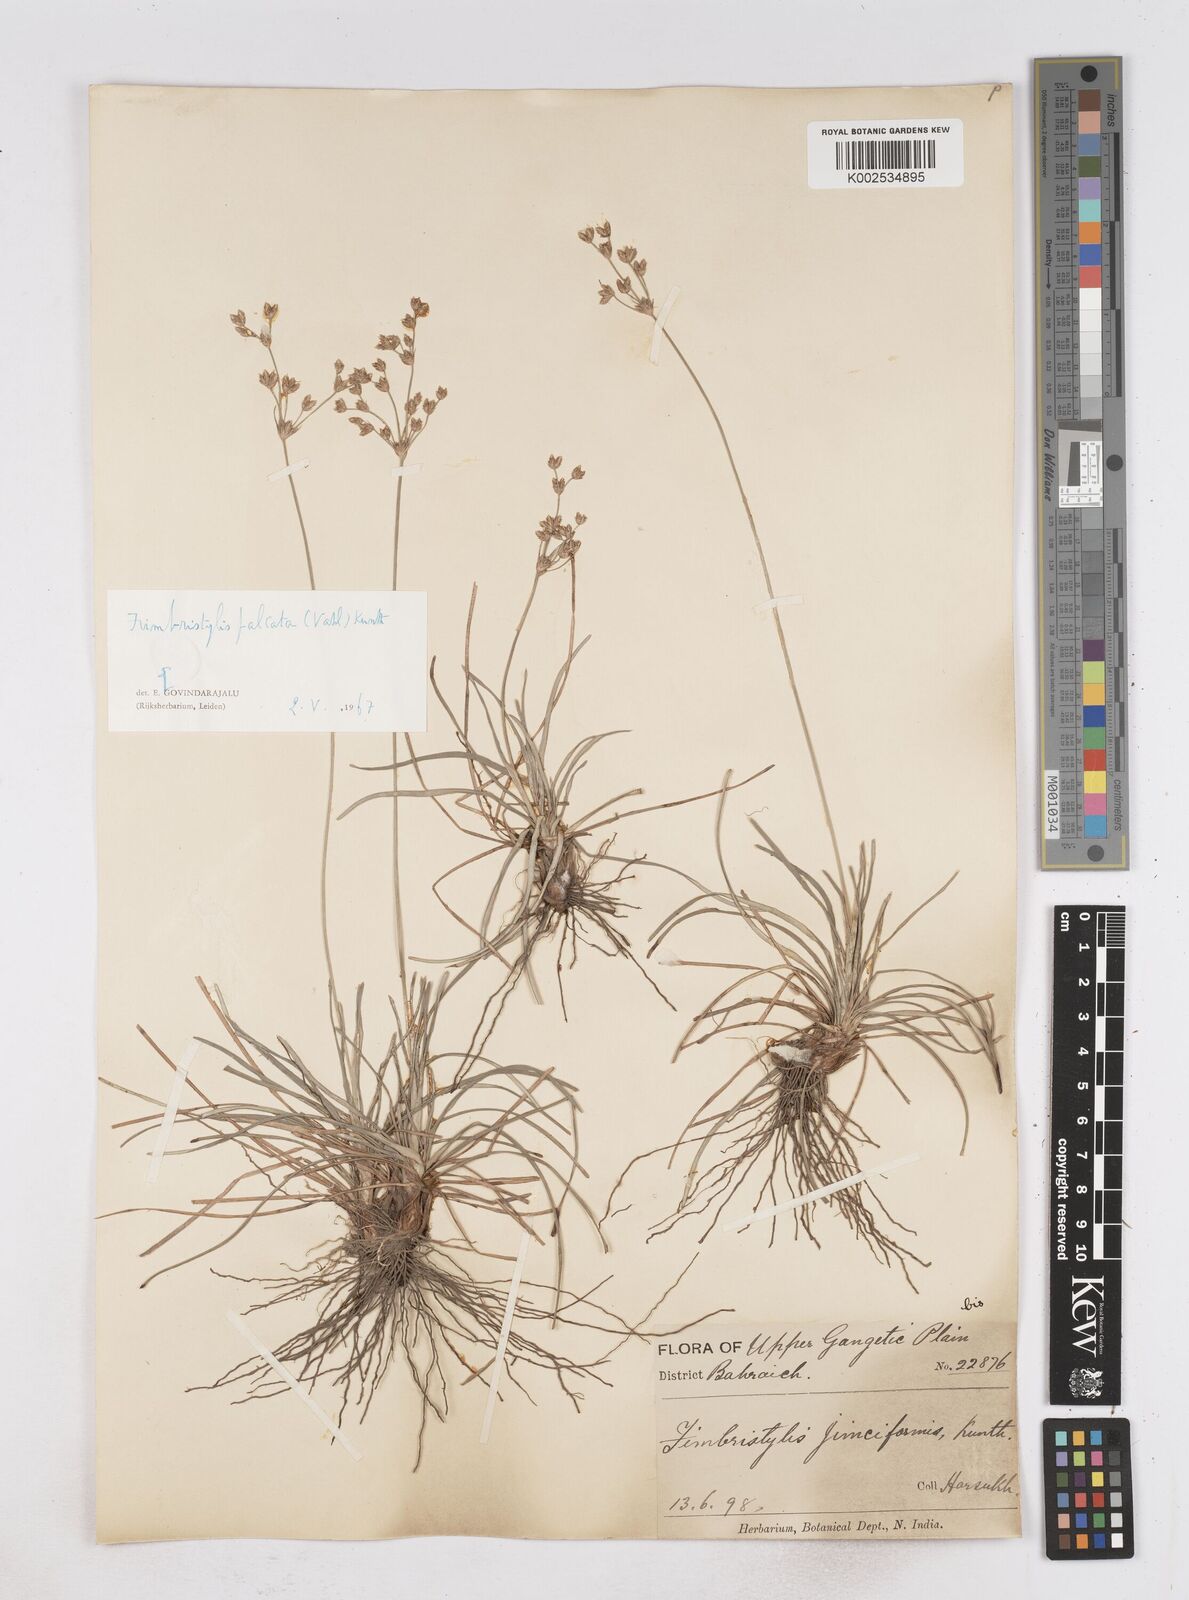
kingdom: Plantae
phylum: Tracheophyta
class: Liliopsida
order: Poales
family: Cyperaceae
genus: Fimbristylis
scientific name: Fimbristylis falcata
